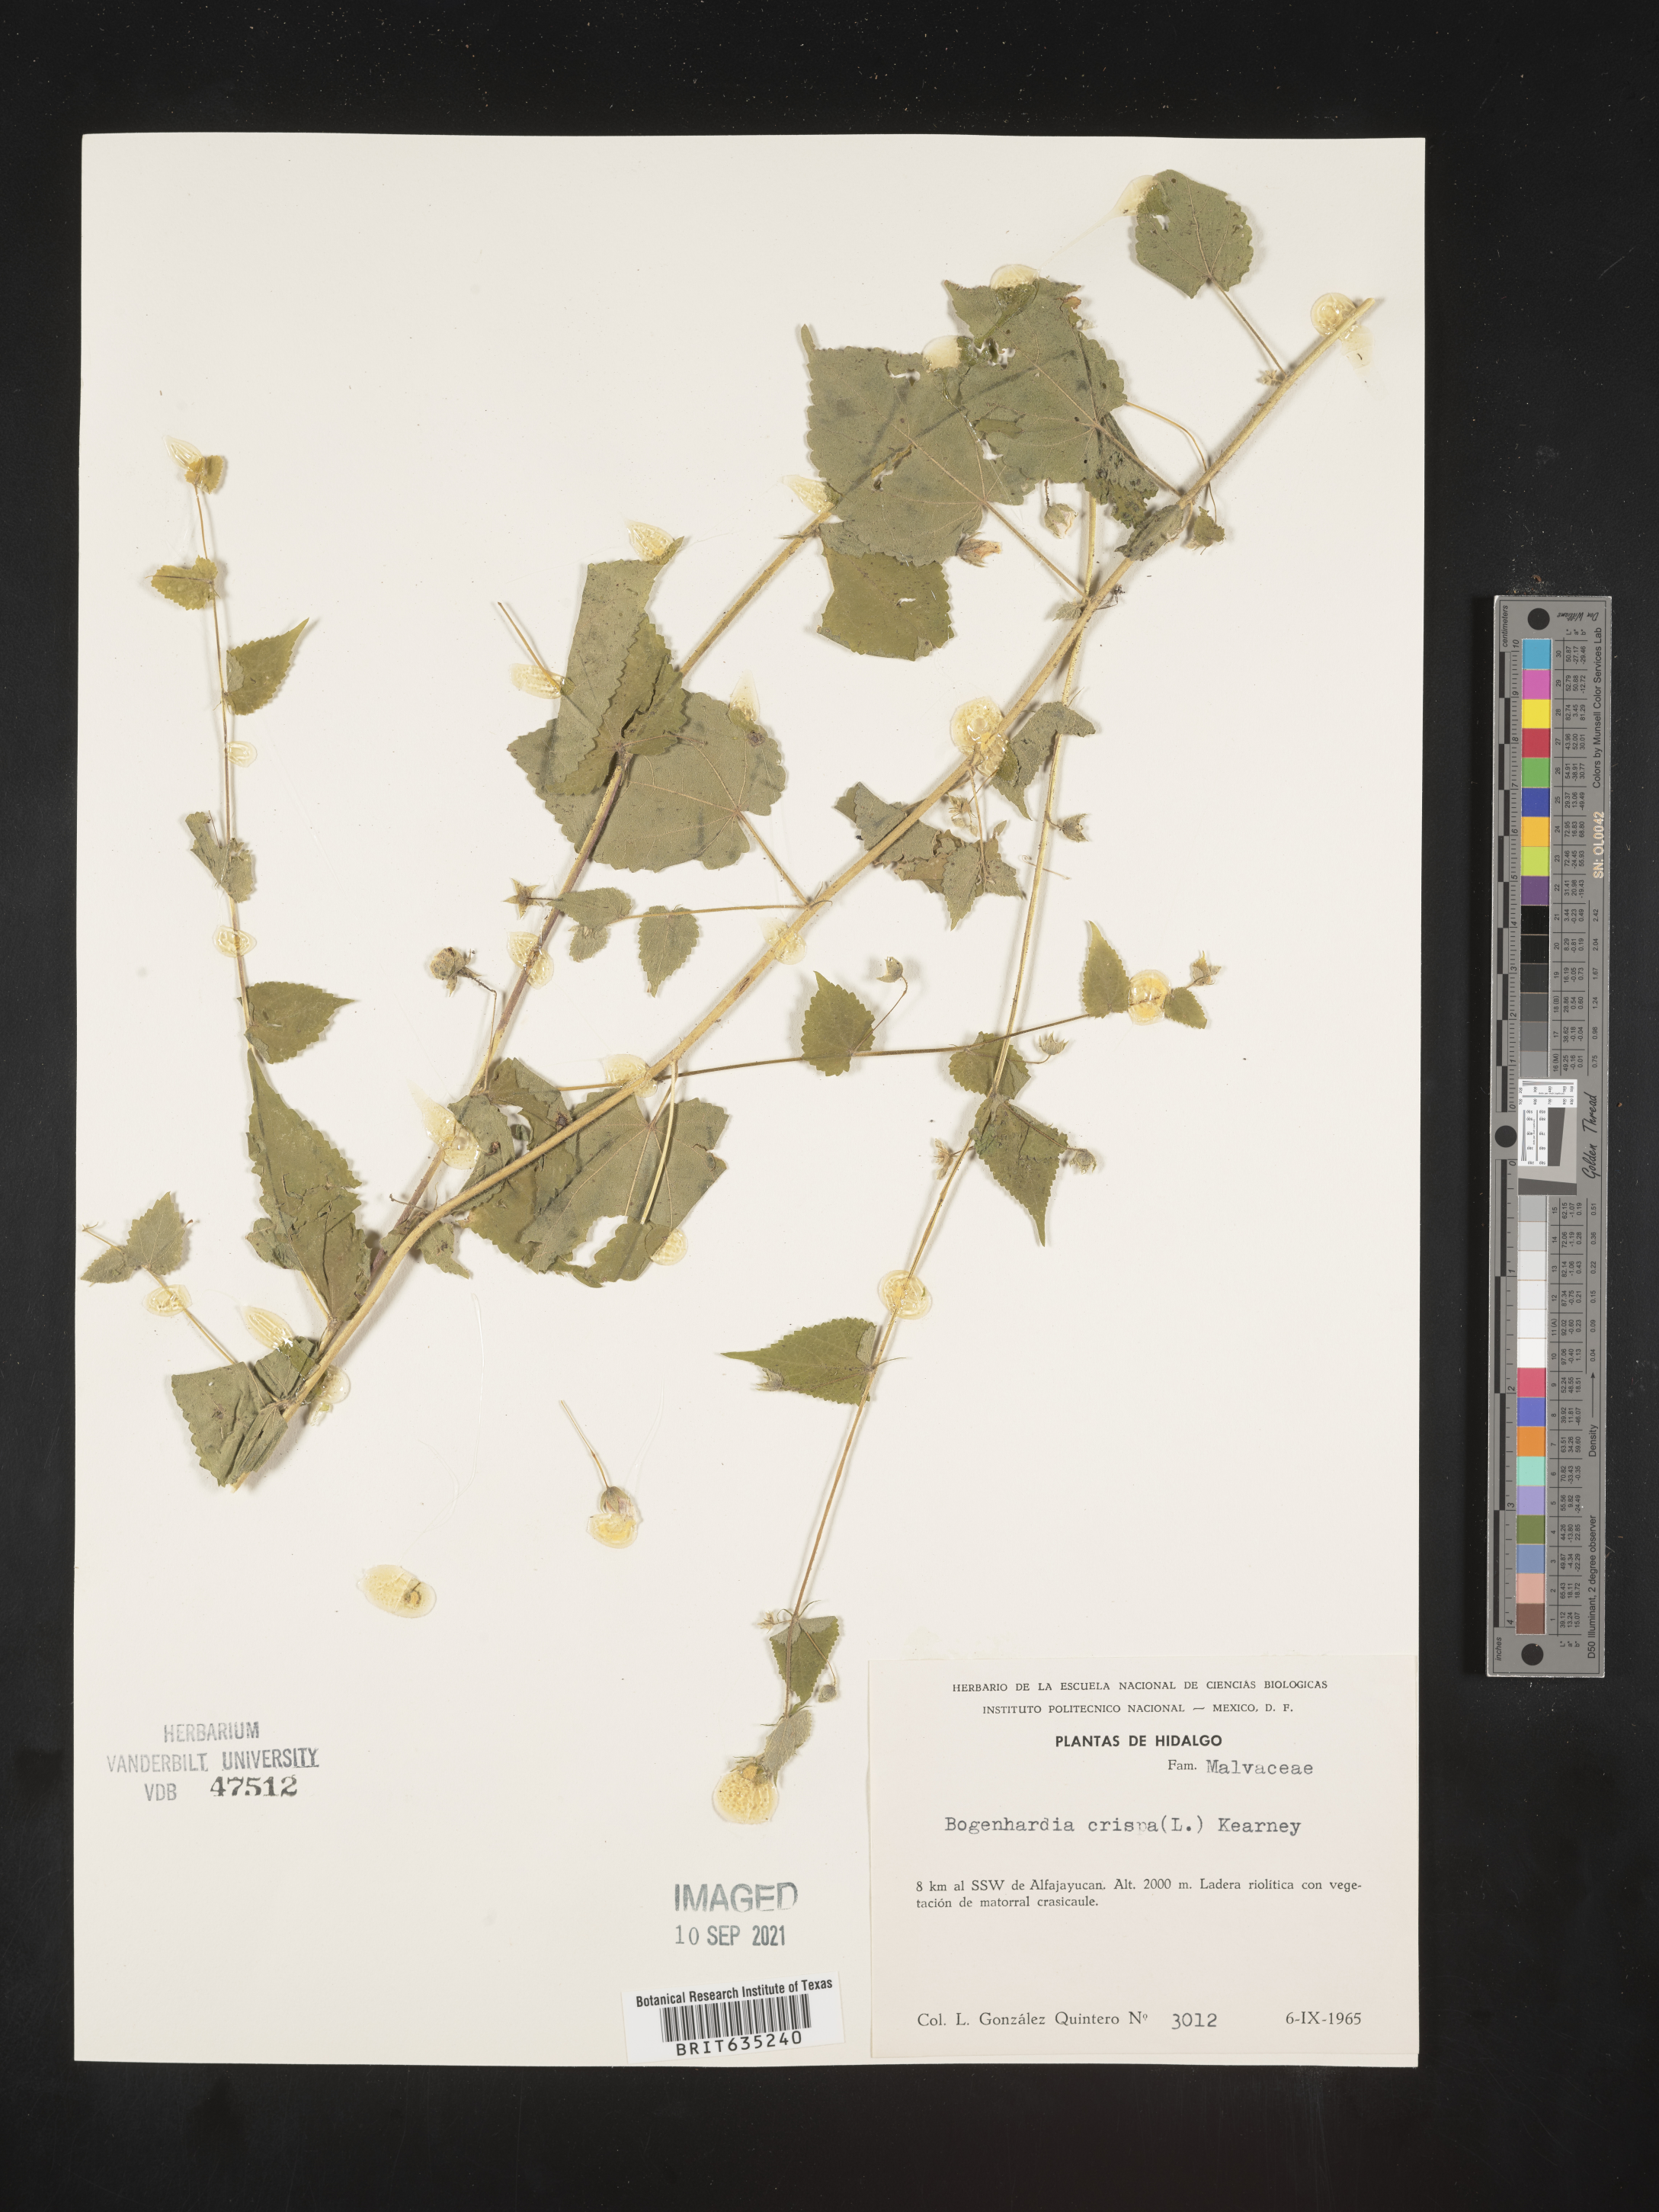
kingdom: Plantae
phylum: Tracheophyta
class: Magnoliopsida
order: Malvales
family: Malvaceae
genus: Herissantia
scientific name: Herissantia
